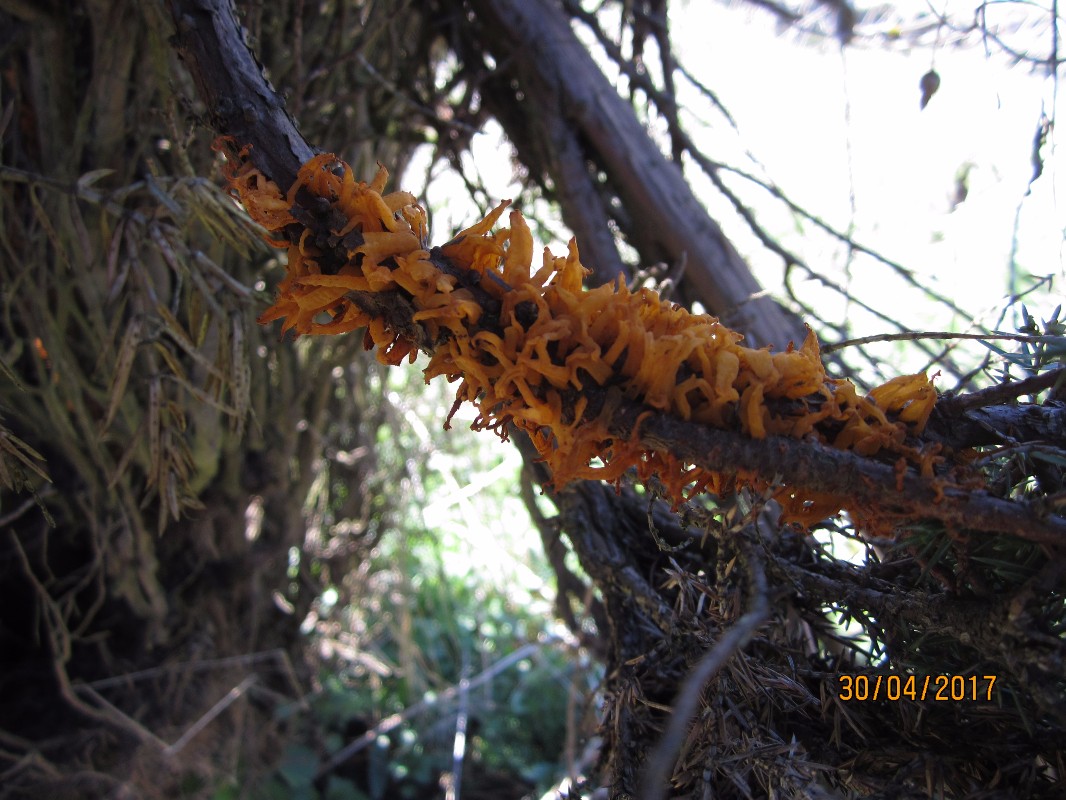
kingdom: Fungi
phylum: Basidiomycota
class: Pucciniomycetes
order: Pucciniales
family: Gymnosporangiaceae
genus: Gymnosporangium
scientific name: Gymnosporangium clavariiforme
